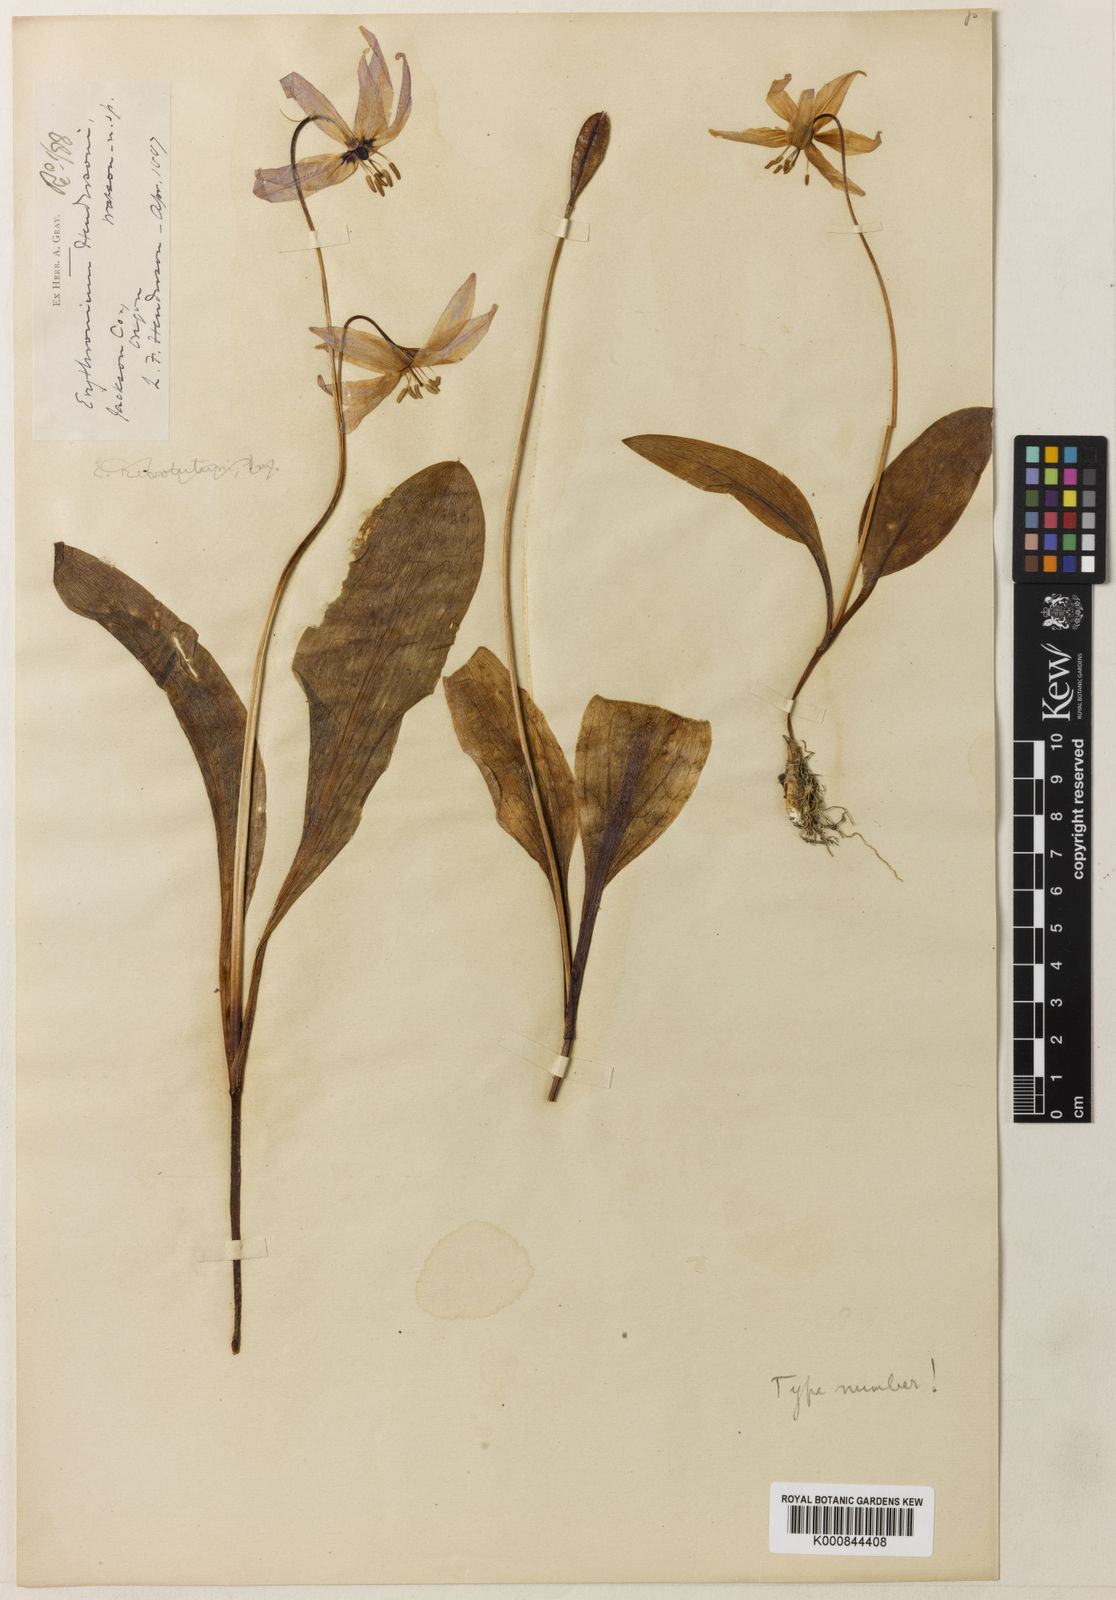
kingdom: Plantae
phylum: Tracheophyta
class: Liliopsida
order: Liliales
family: Liliaceae
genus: Erythronium
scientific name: Erythronium hendersonii
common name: Henderson's fawn-lily
